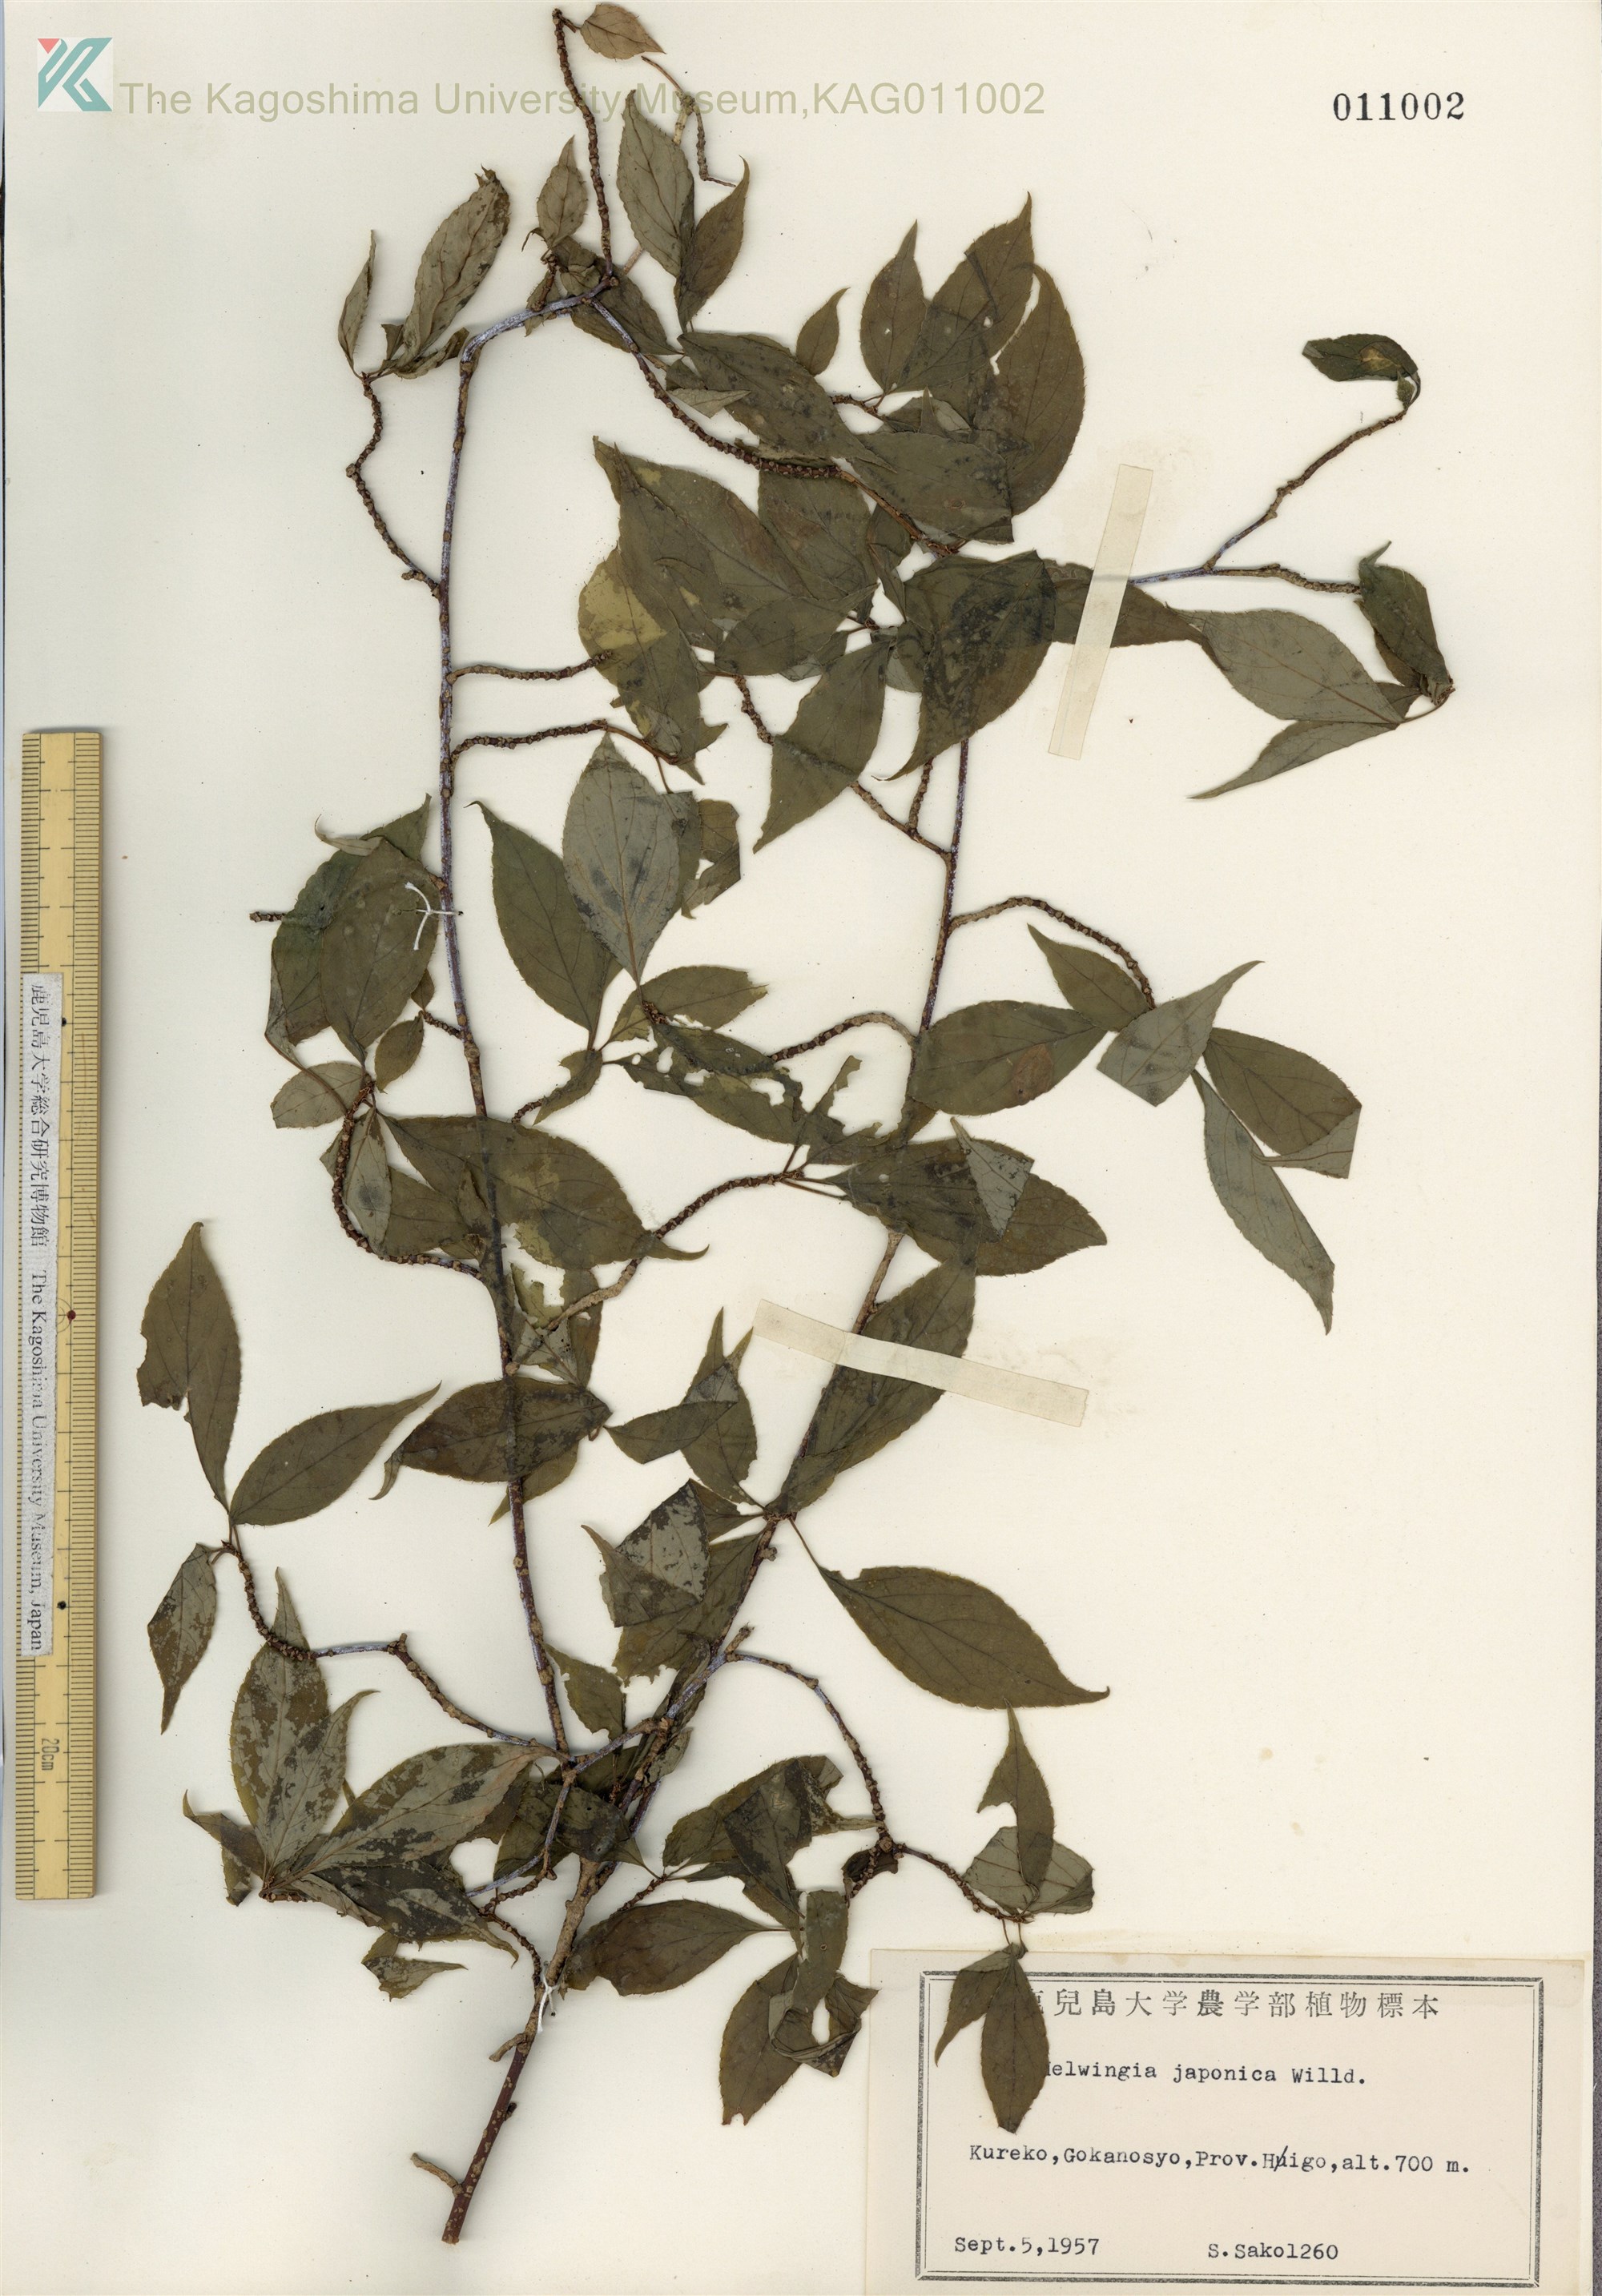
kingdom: Plantae
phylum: Tracheophyta
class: Magnoliopsida
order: Aquifoliales
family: Helwingiaceae
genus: Helwingia
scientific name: Helwingia japonica
